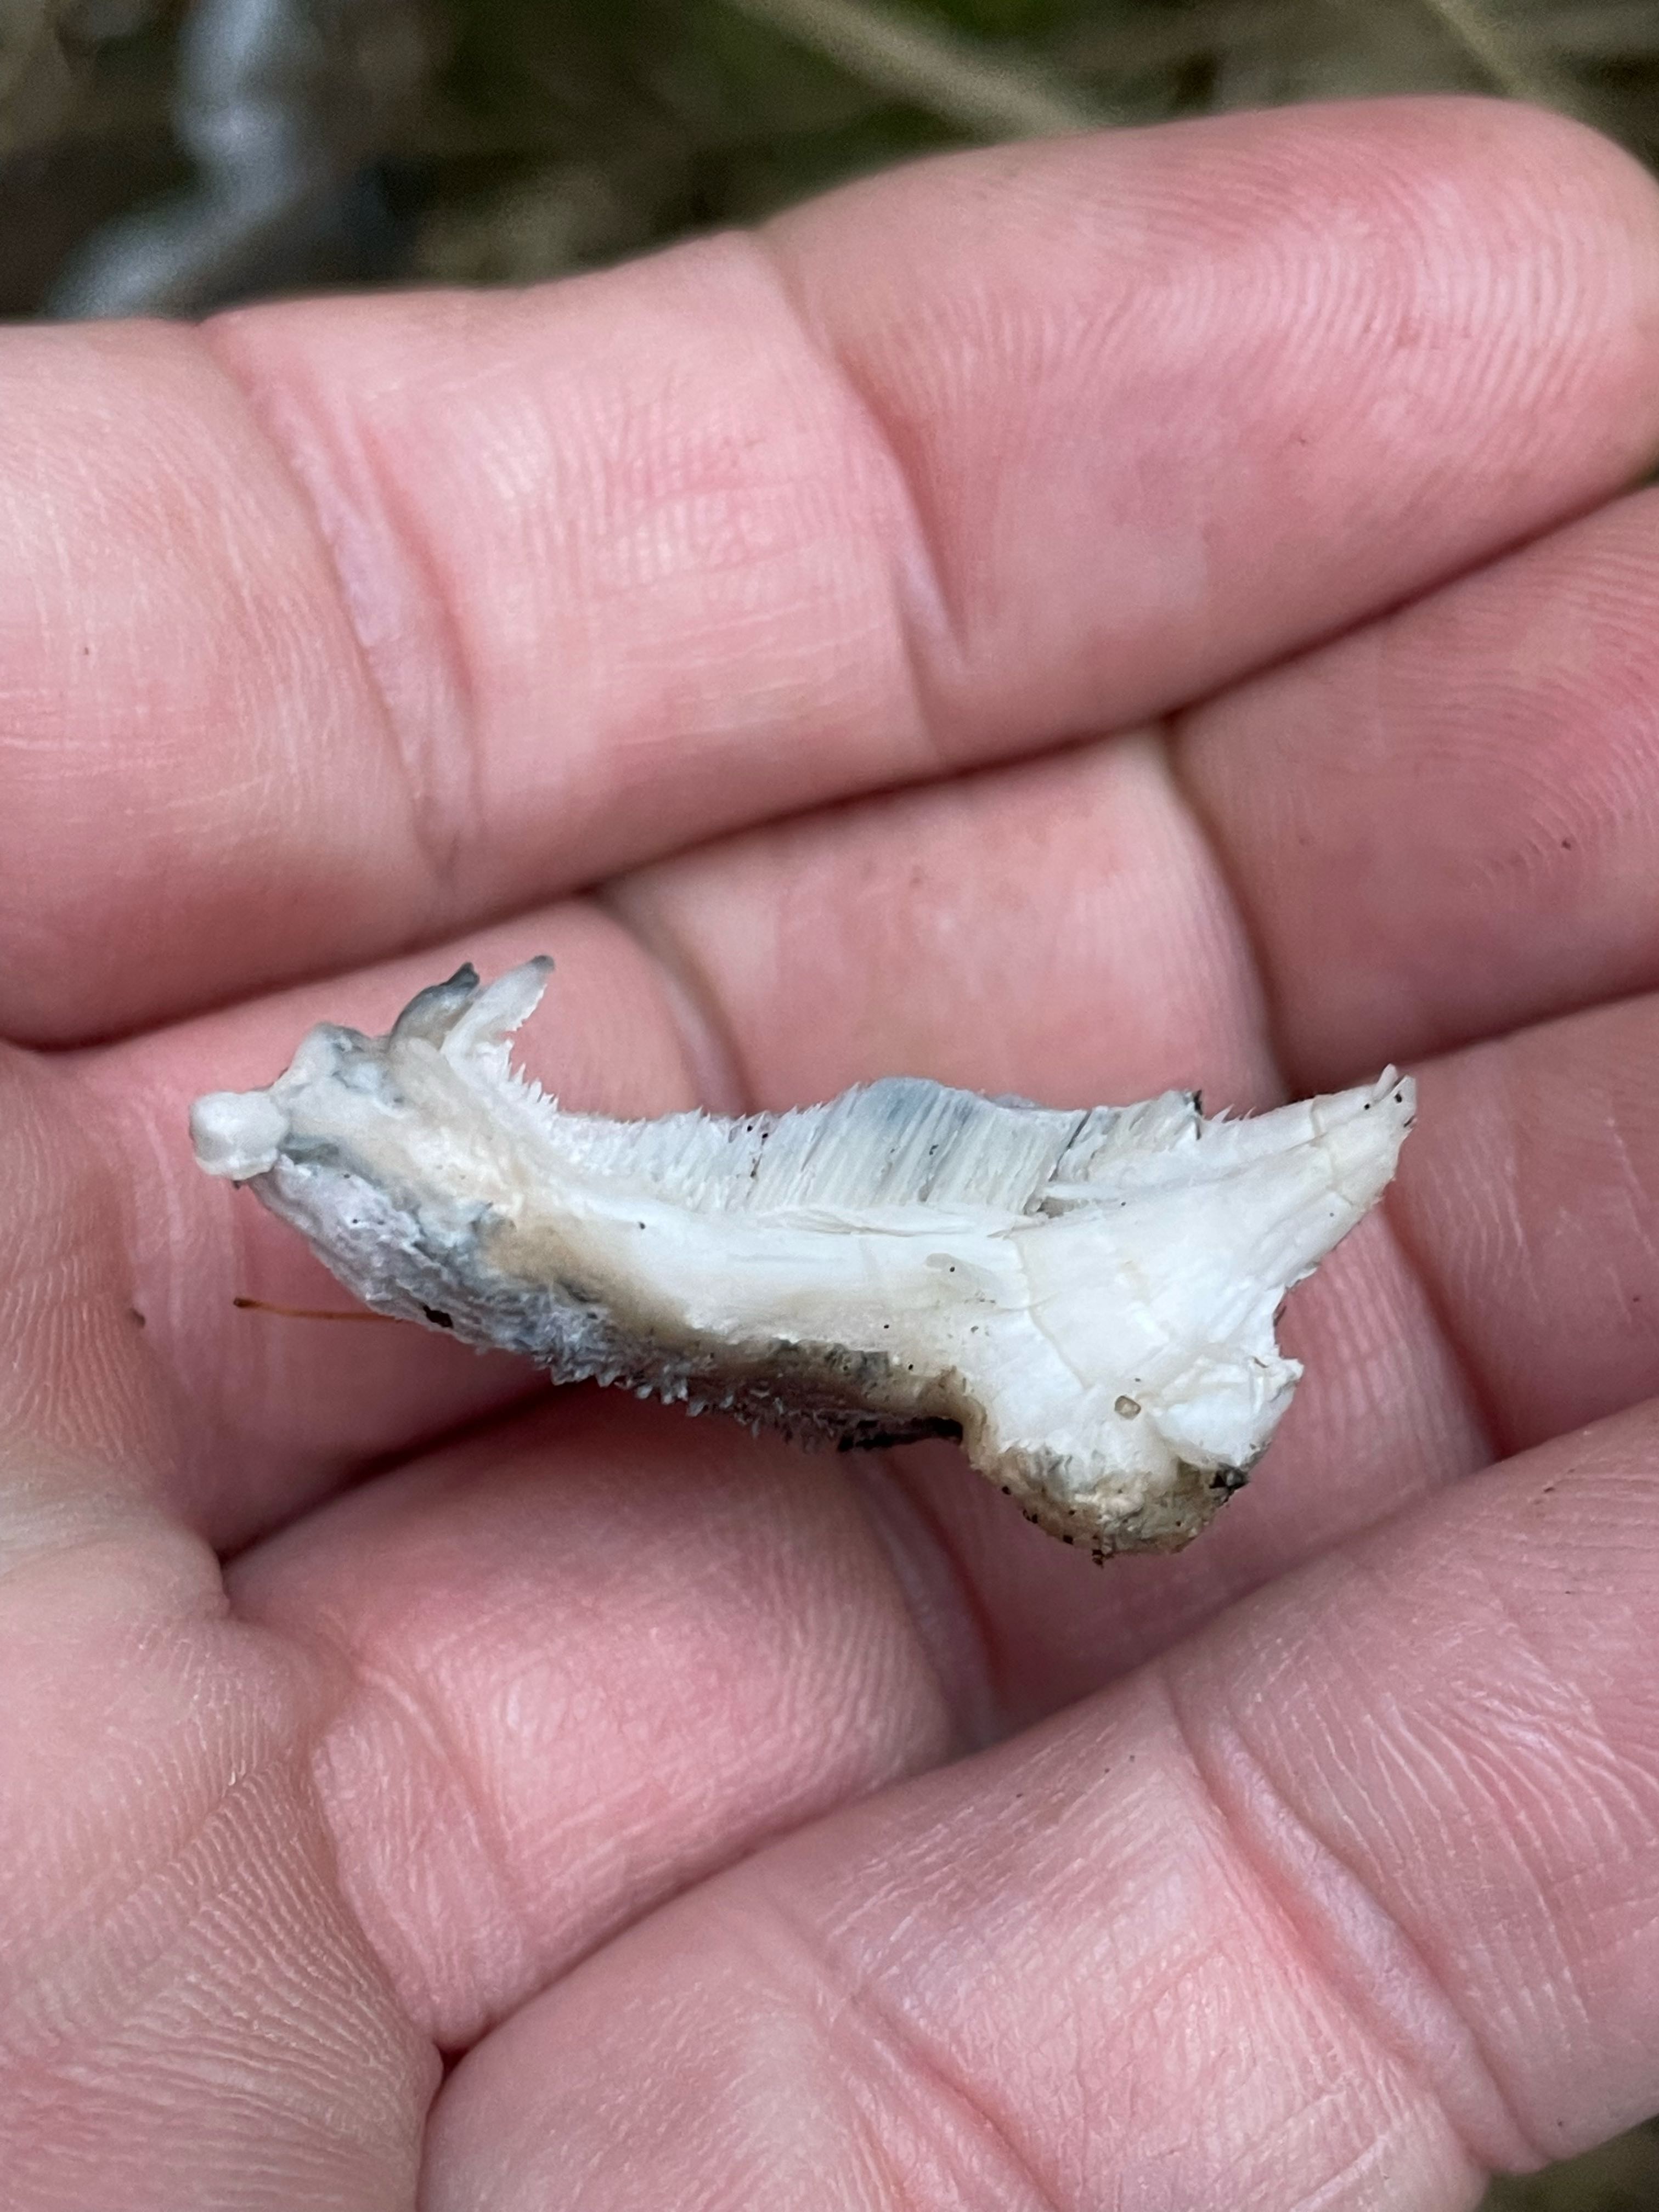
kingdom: Fungi
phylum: Basidiomycota
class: Agaricomycetes
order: Polyporales
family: Polyporaceae
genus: Cyanosporus
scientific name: Cyanosporus caesius
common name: blålig kødporesvamp
